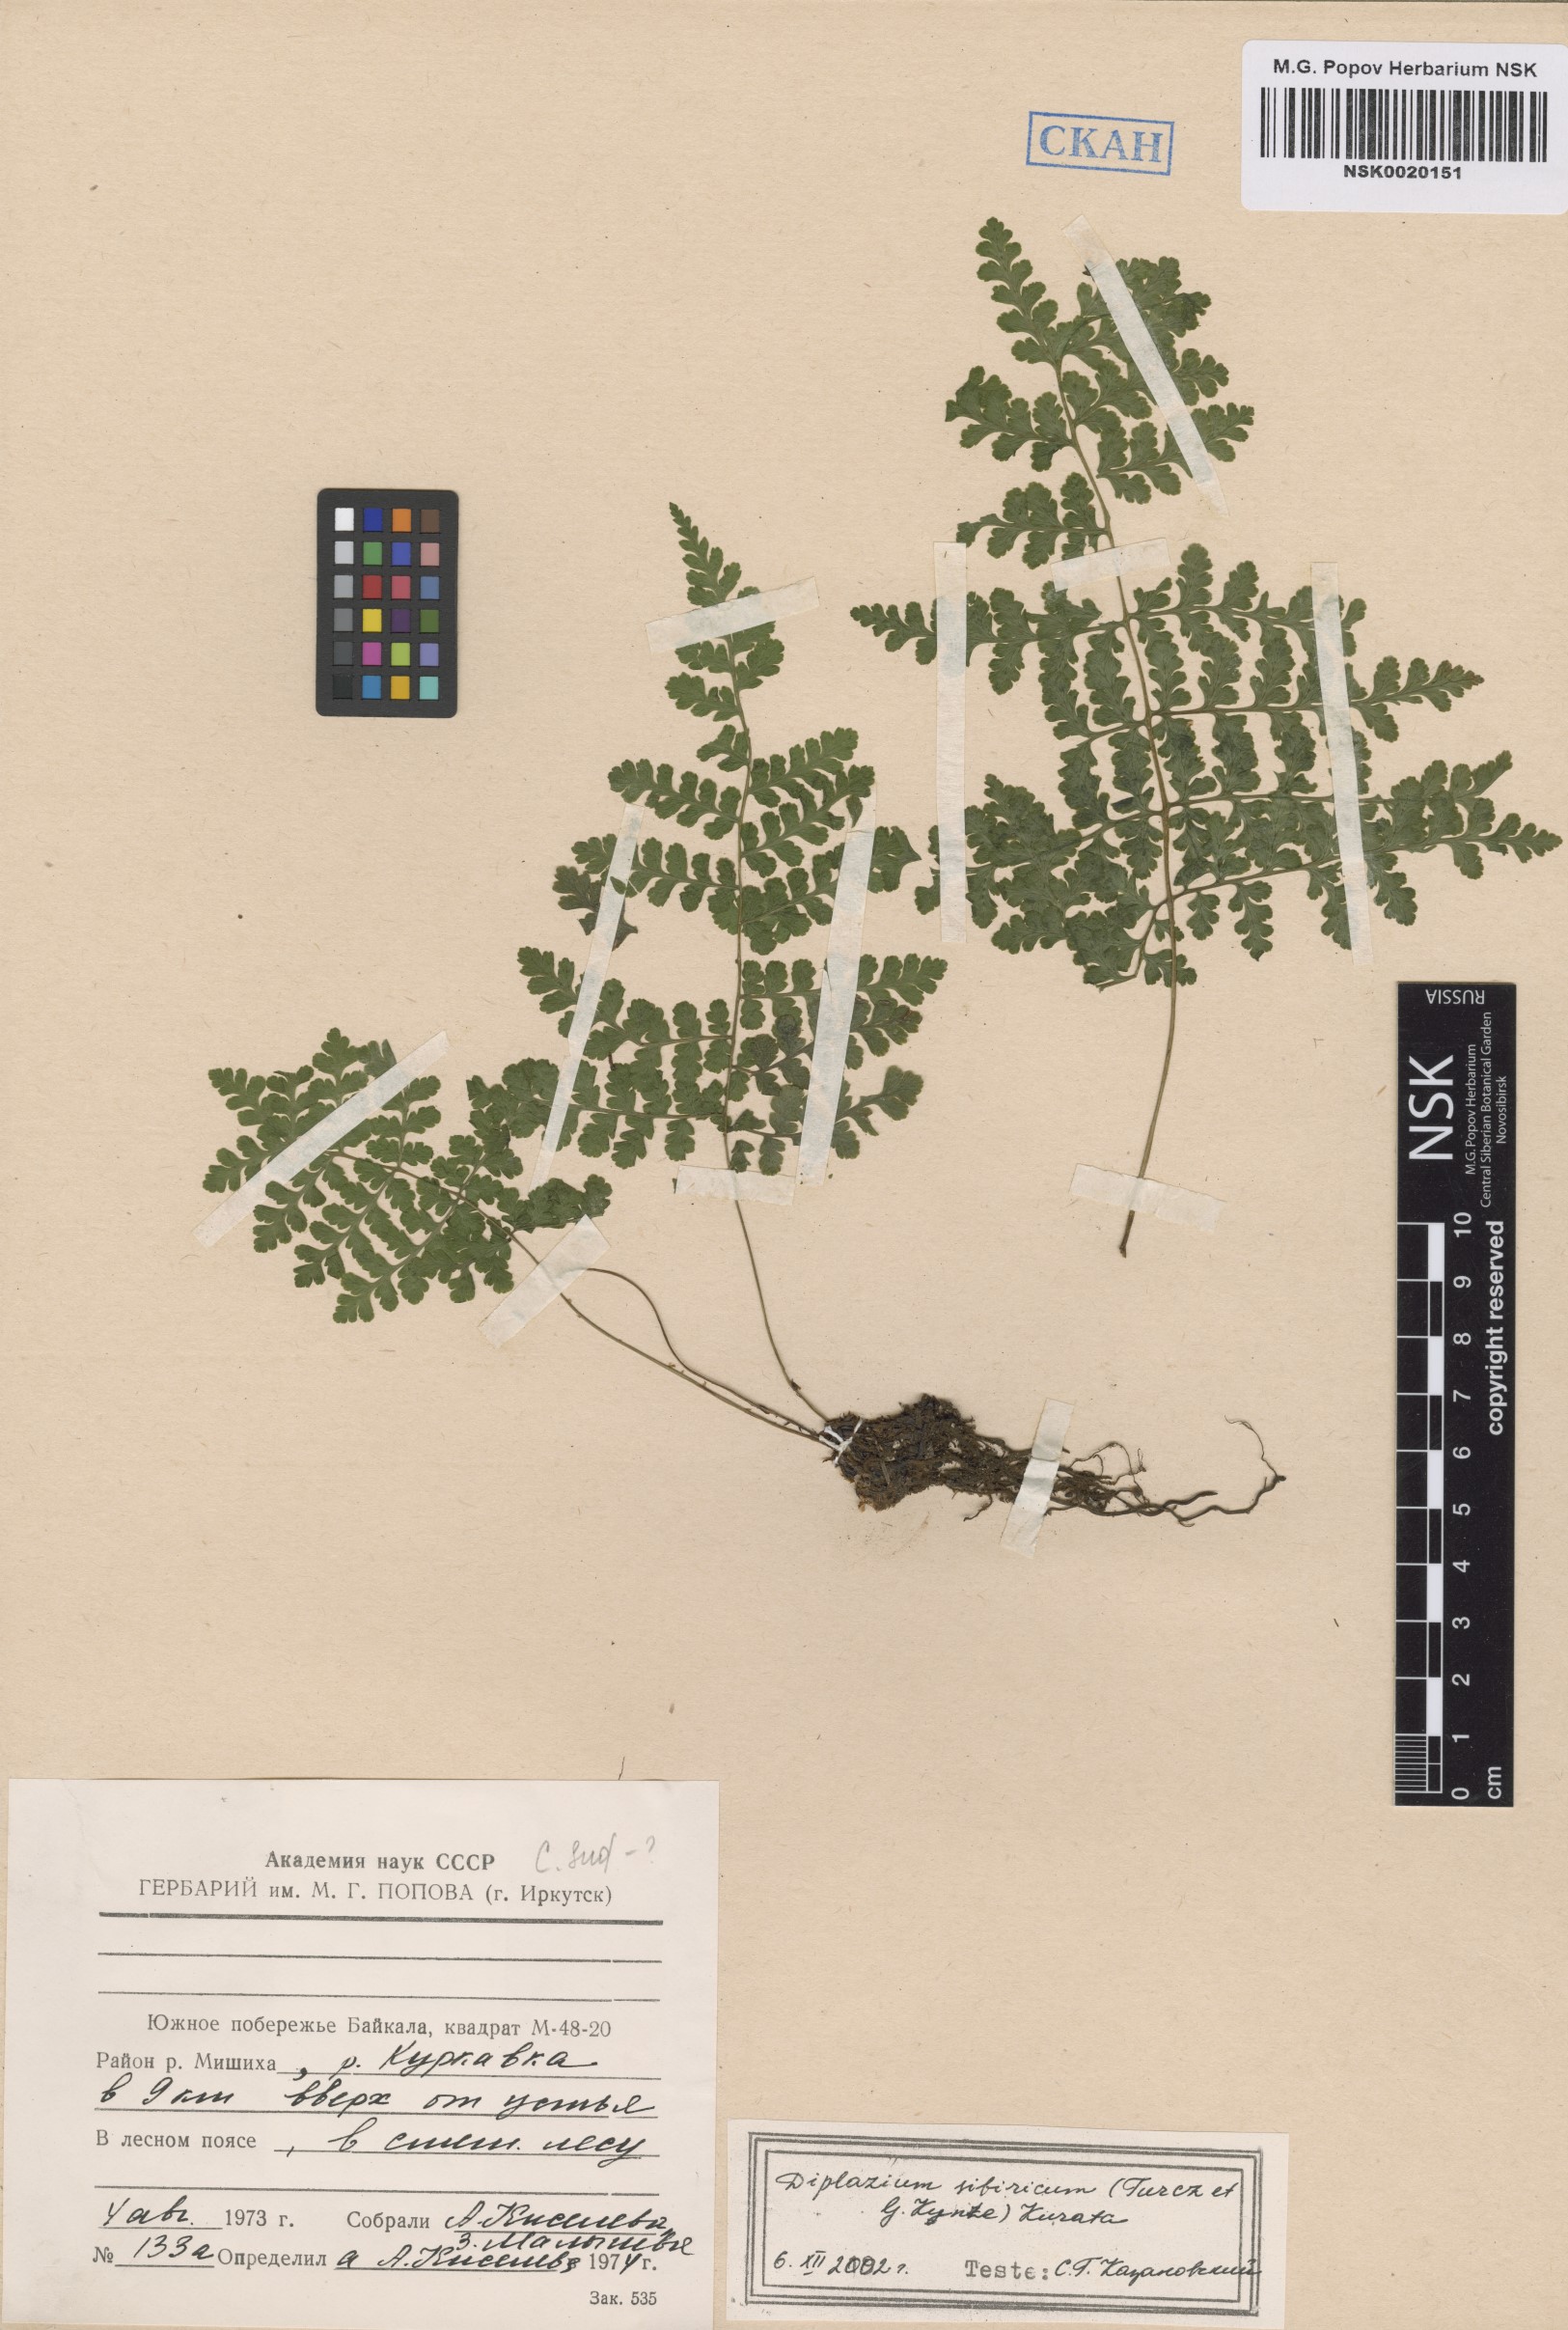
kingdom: Plantae
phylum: Tracheophyta
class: Polypodiopsida
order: Polypodiales
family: Athyriaceae
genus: Diplazium
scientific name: Diplazium sibiricum
